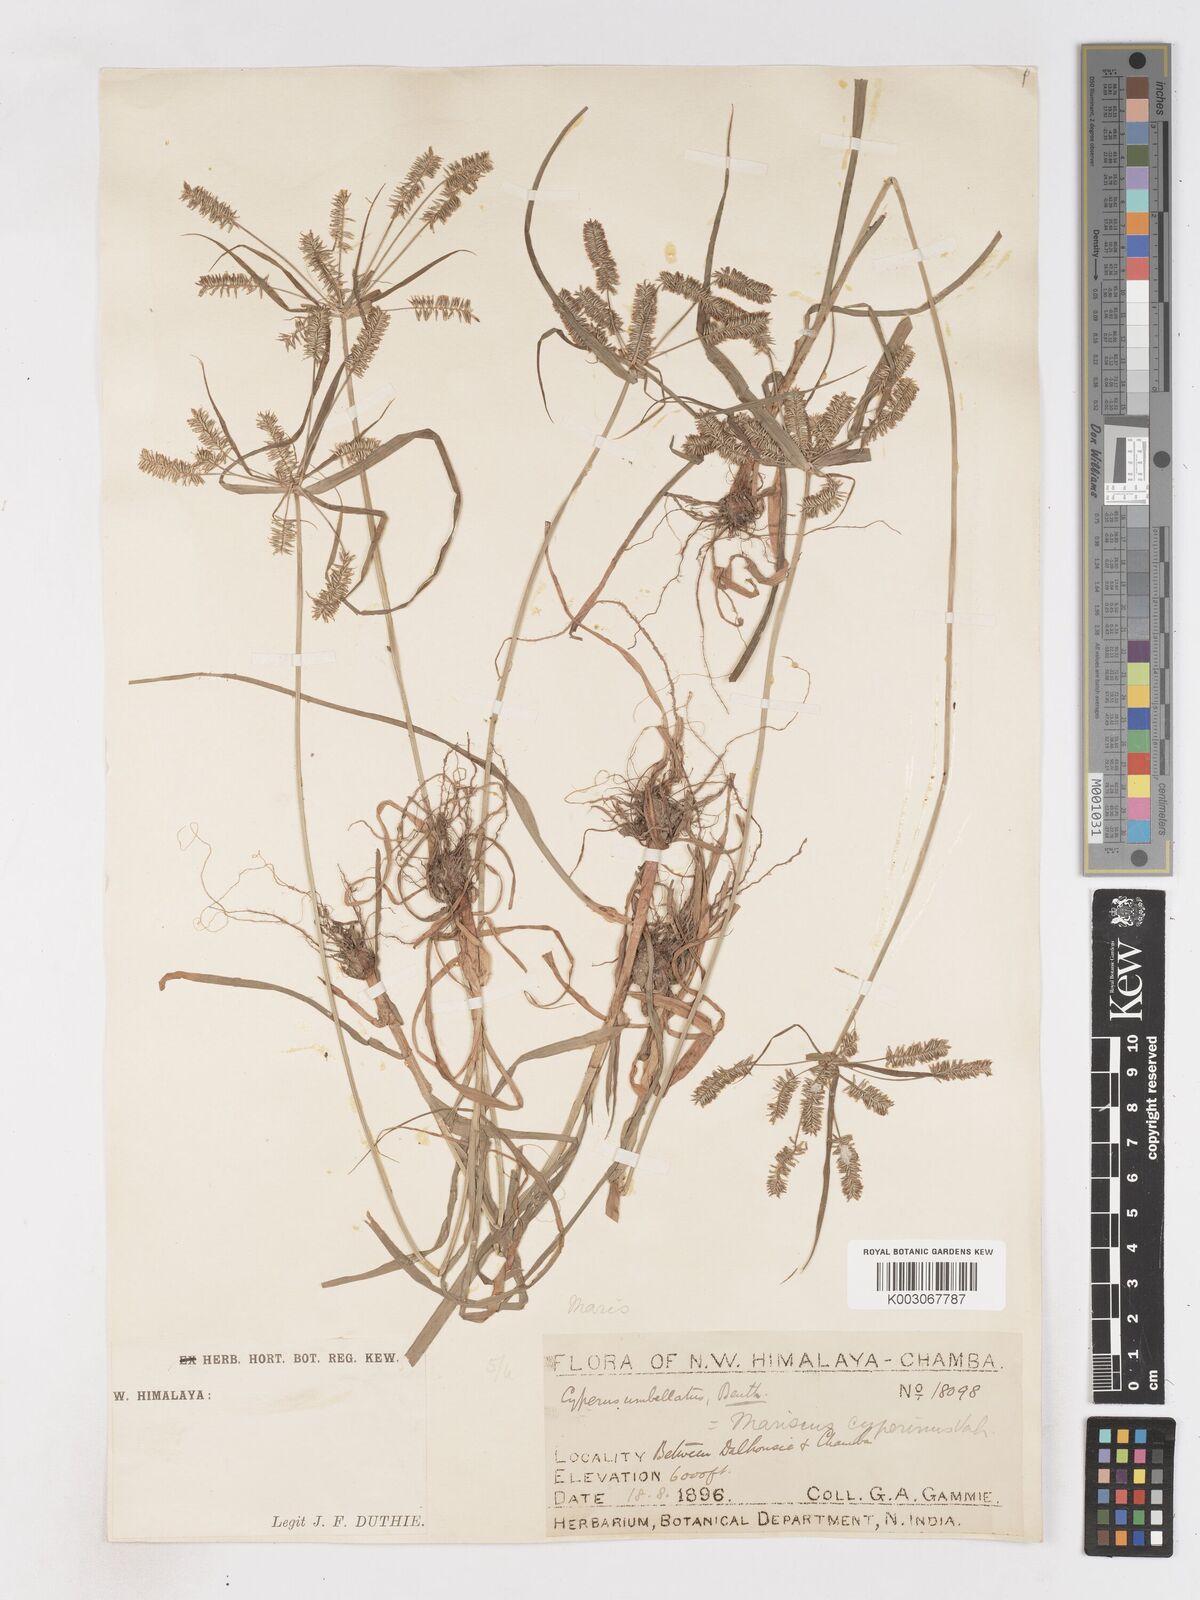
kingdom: Plantae
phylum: Tracheophyta
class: Liliopsida
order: Poales
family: Cyperaceae
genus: Cyperus
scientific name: Cyperus cyperoides
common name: Pacific island flat sedge
